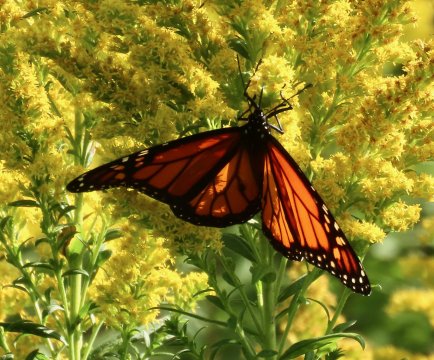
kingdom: Animalia
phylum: Arthropoda
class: Insecta
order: Lepidoptera
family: Nymphalidae
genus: Danaus
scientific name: Danaus plexippus
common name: Monarch
